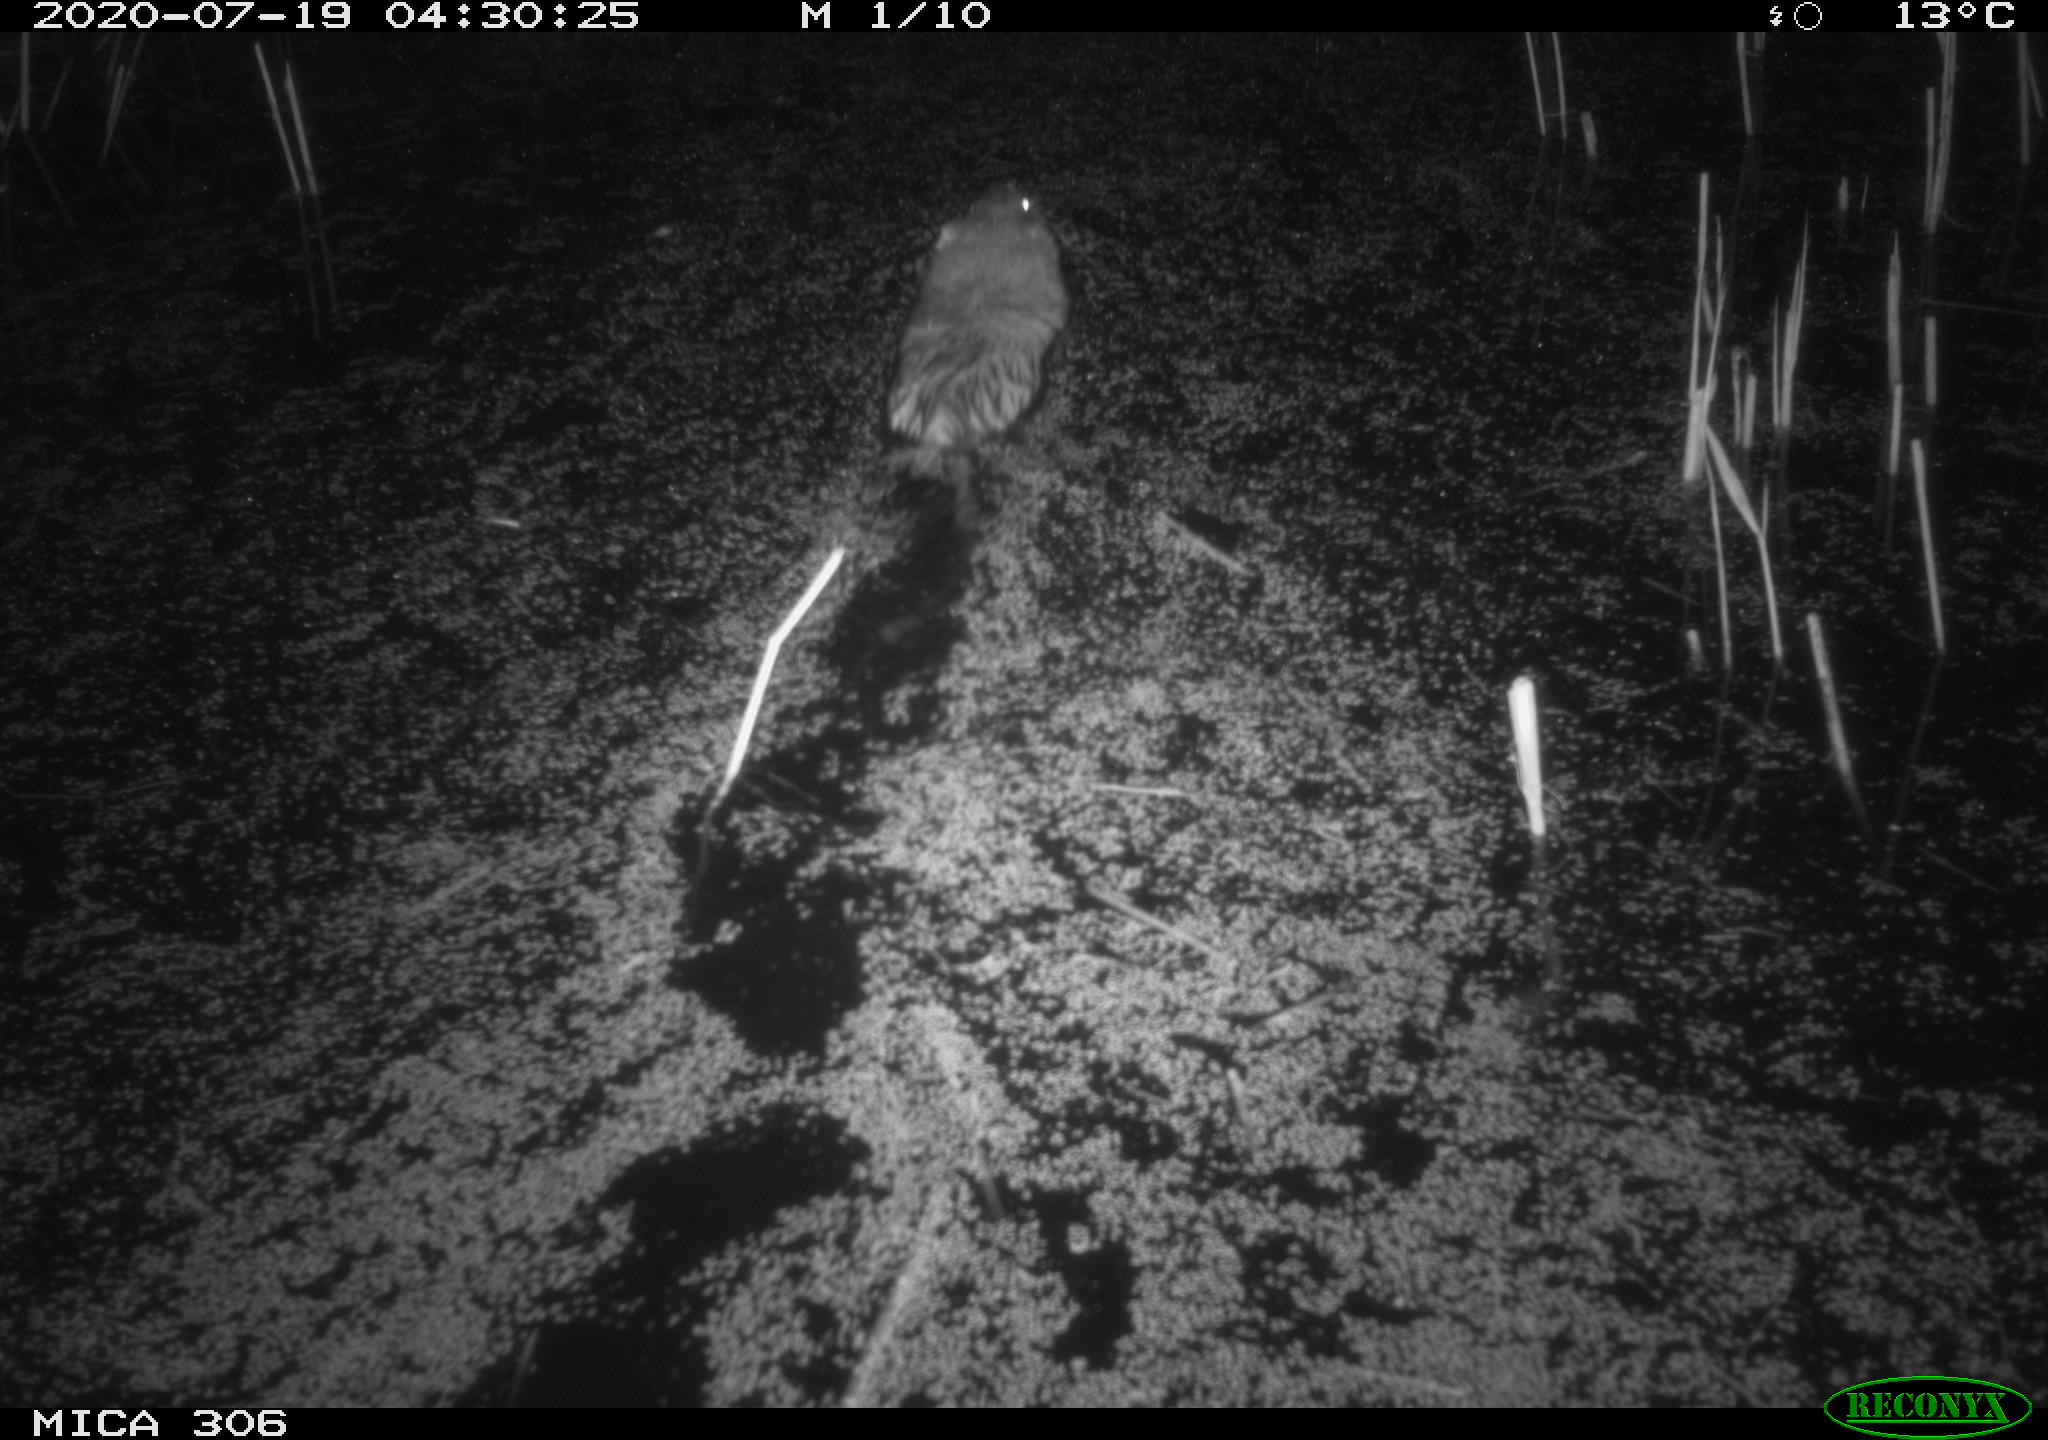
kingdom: Animalia
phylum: Chordata
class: Mammalia
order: Rodentia
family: Cricetidae
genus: Ondatra
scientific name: Ondatra zibethicus
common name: Muskrat
